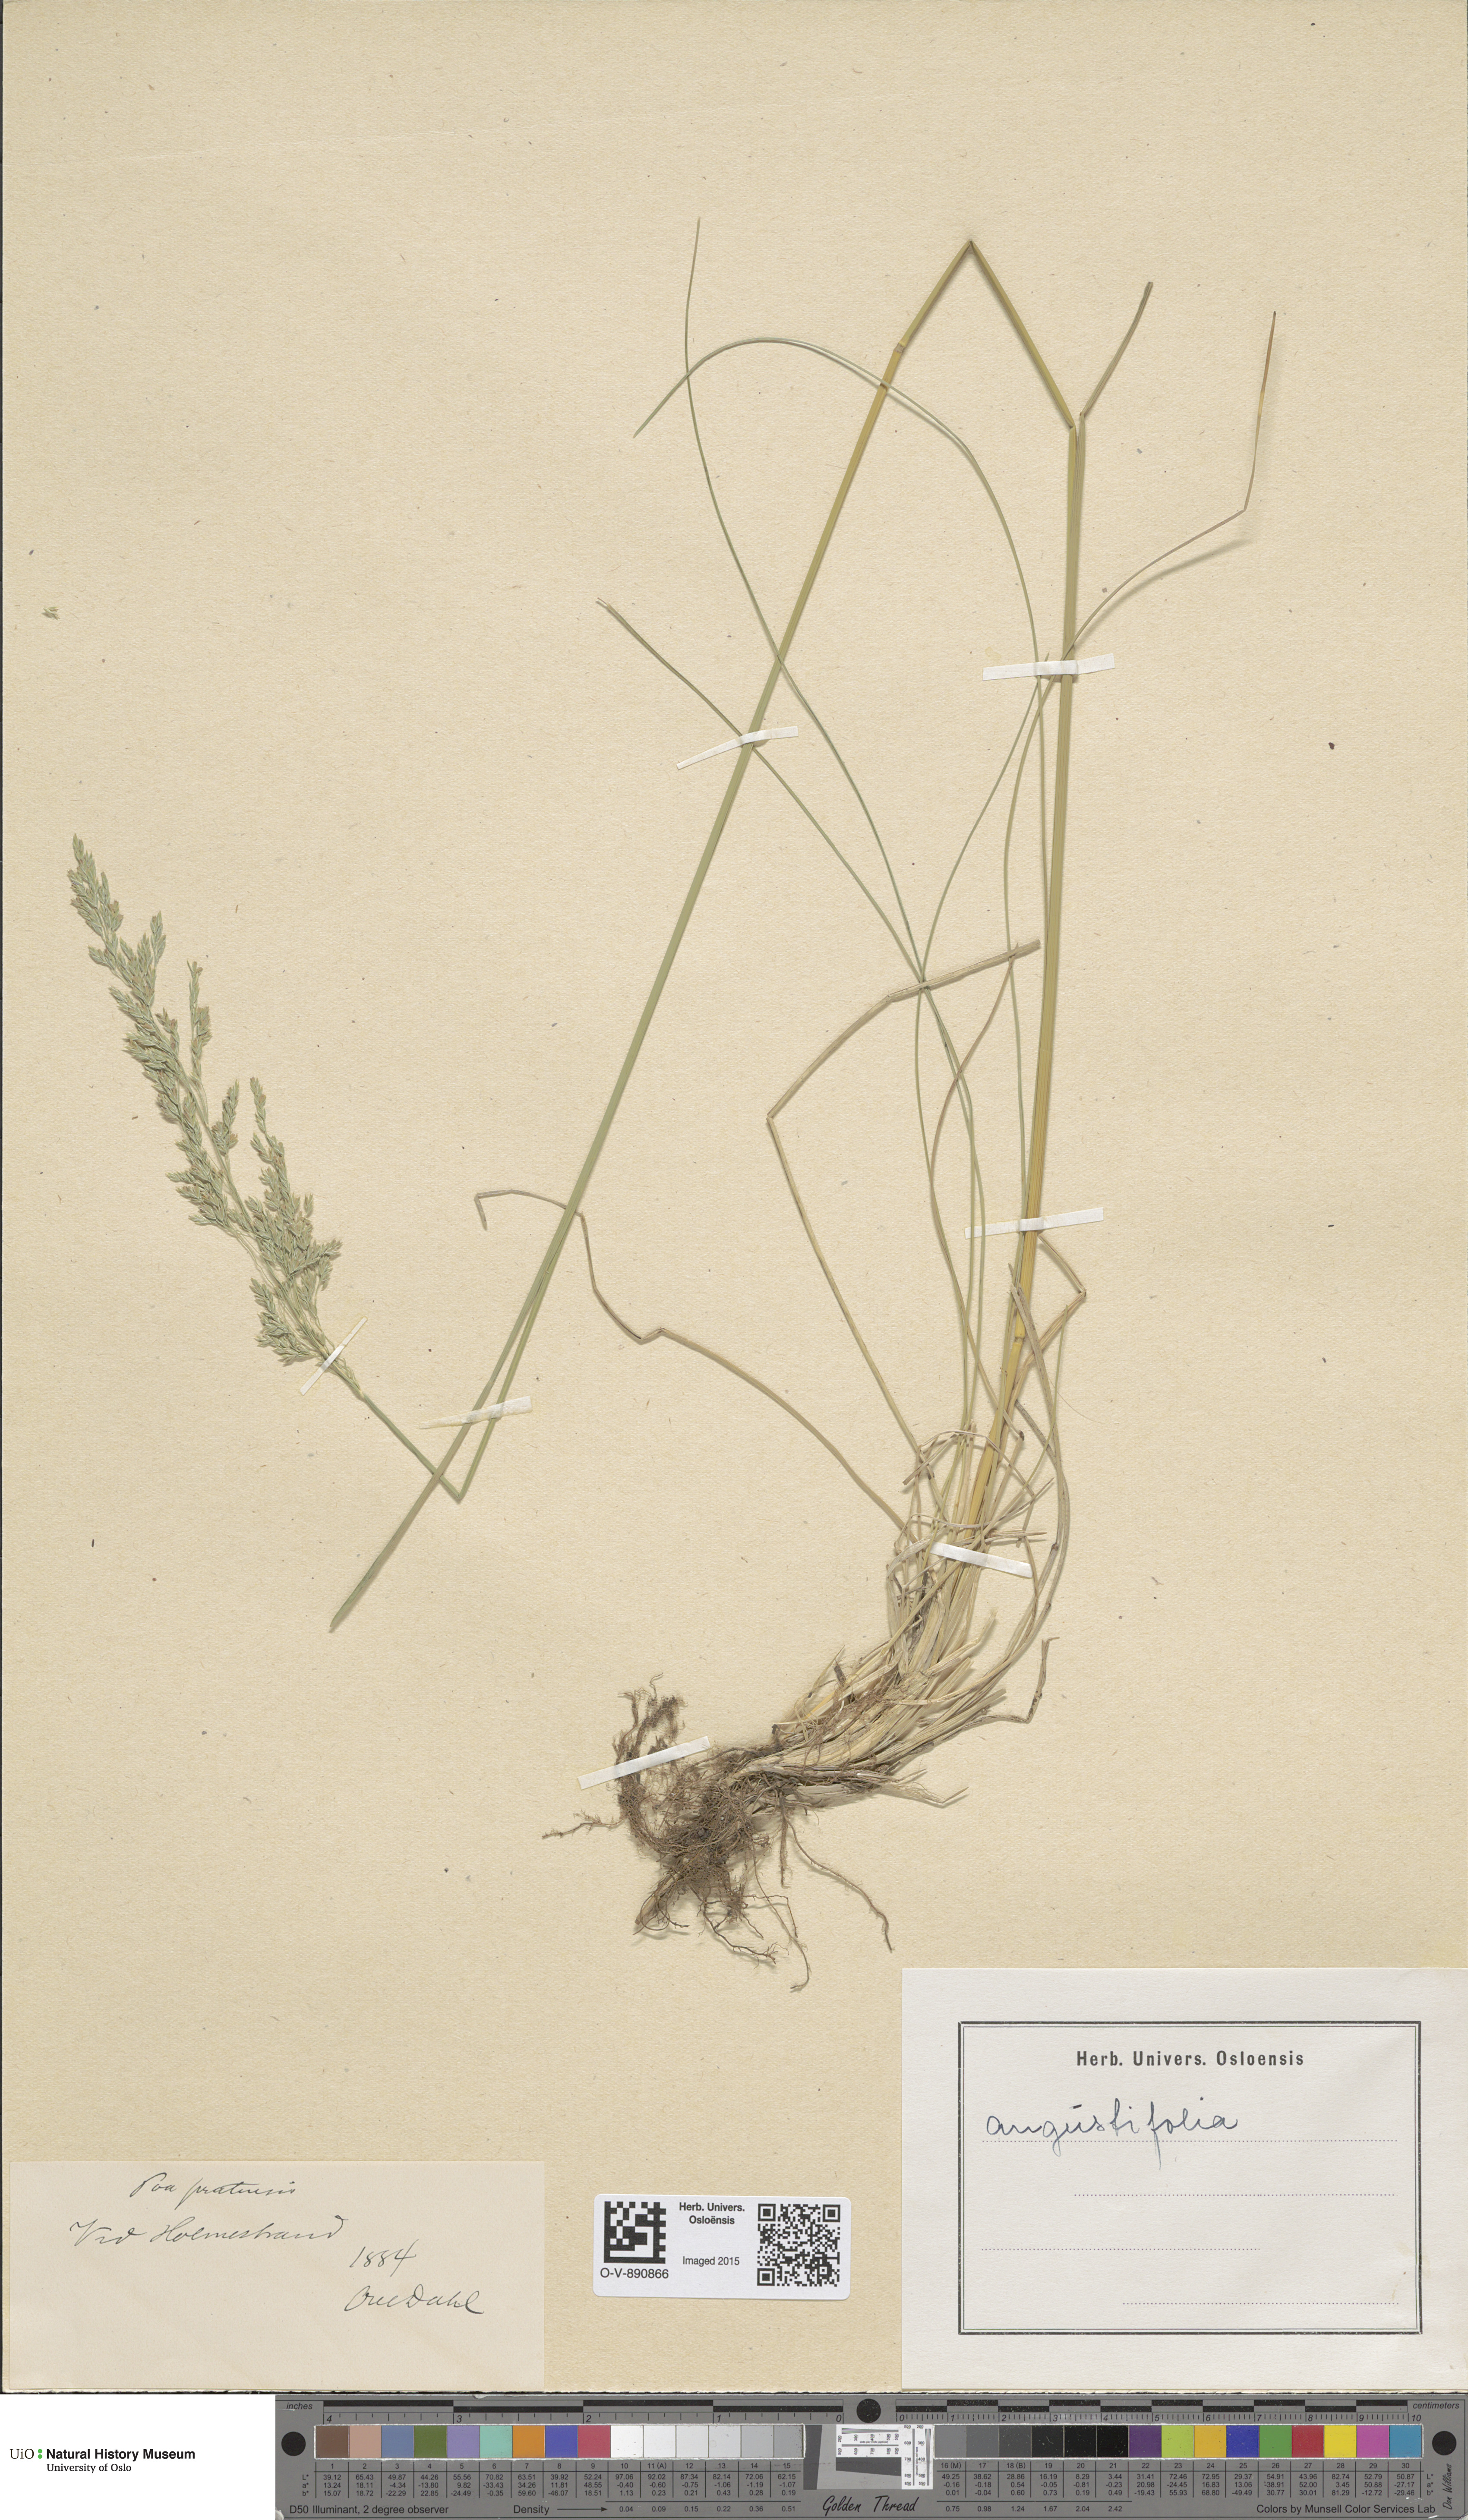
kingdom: Plantae
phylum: Tracheophyta
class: Liliopsida
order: Poales
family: Poaceae
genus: Poa
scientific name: Poa angustifolia
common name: Narrow-leaved meadow-grass
